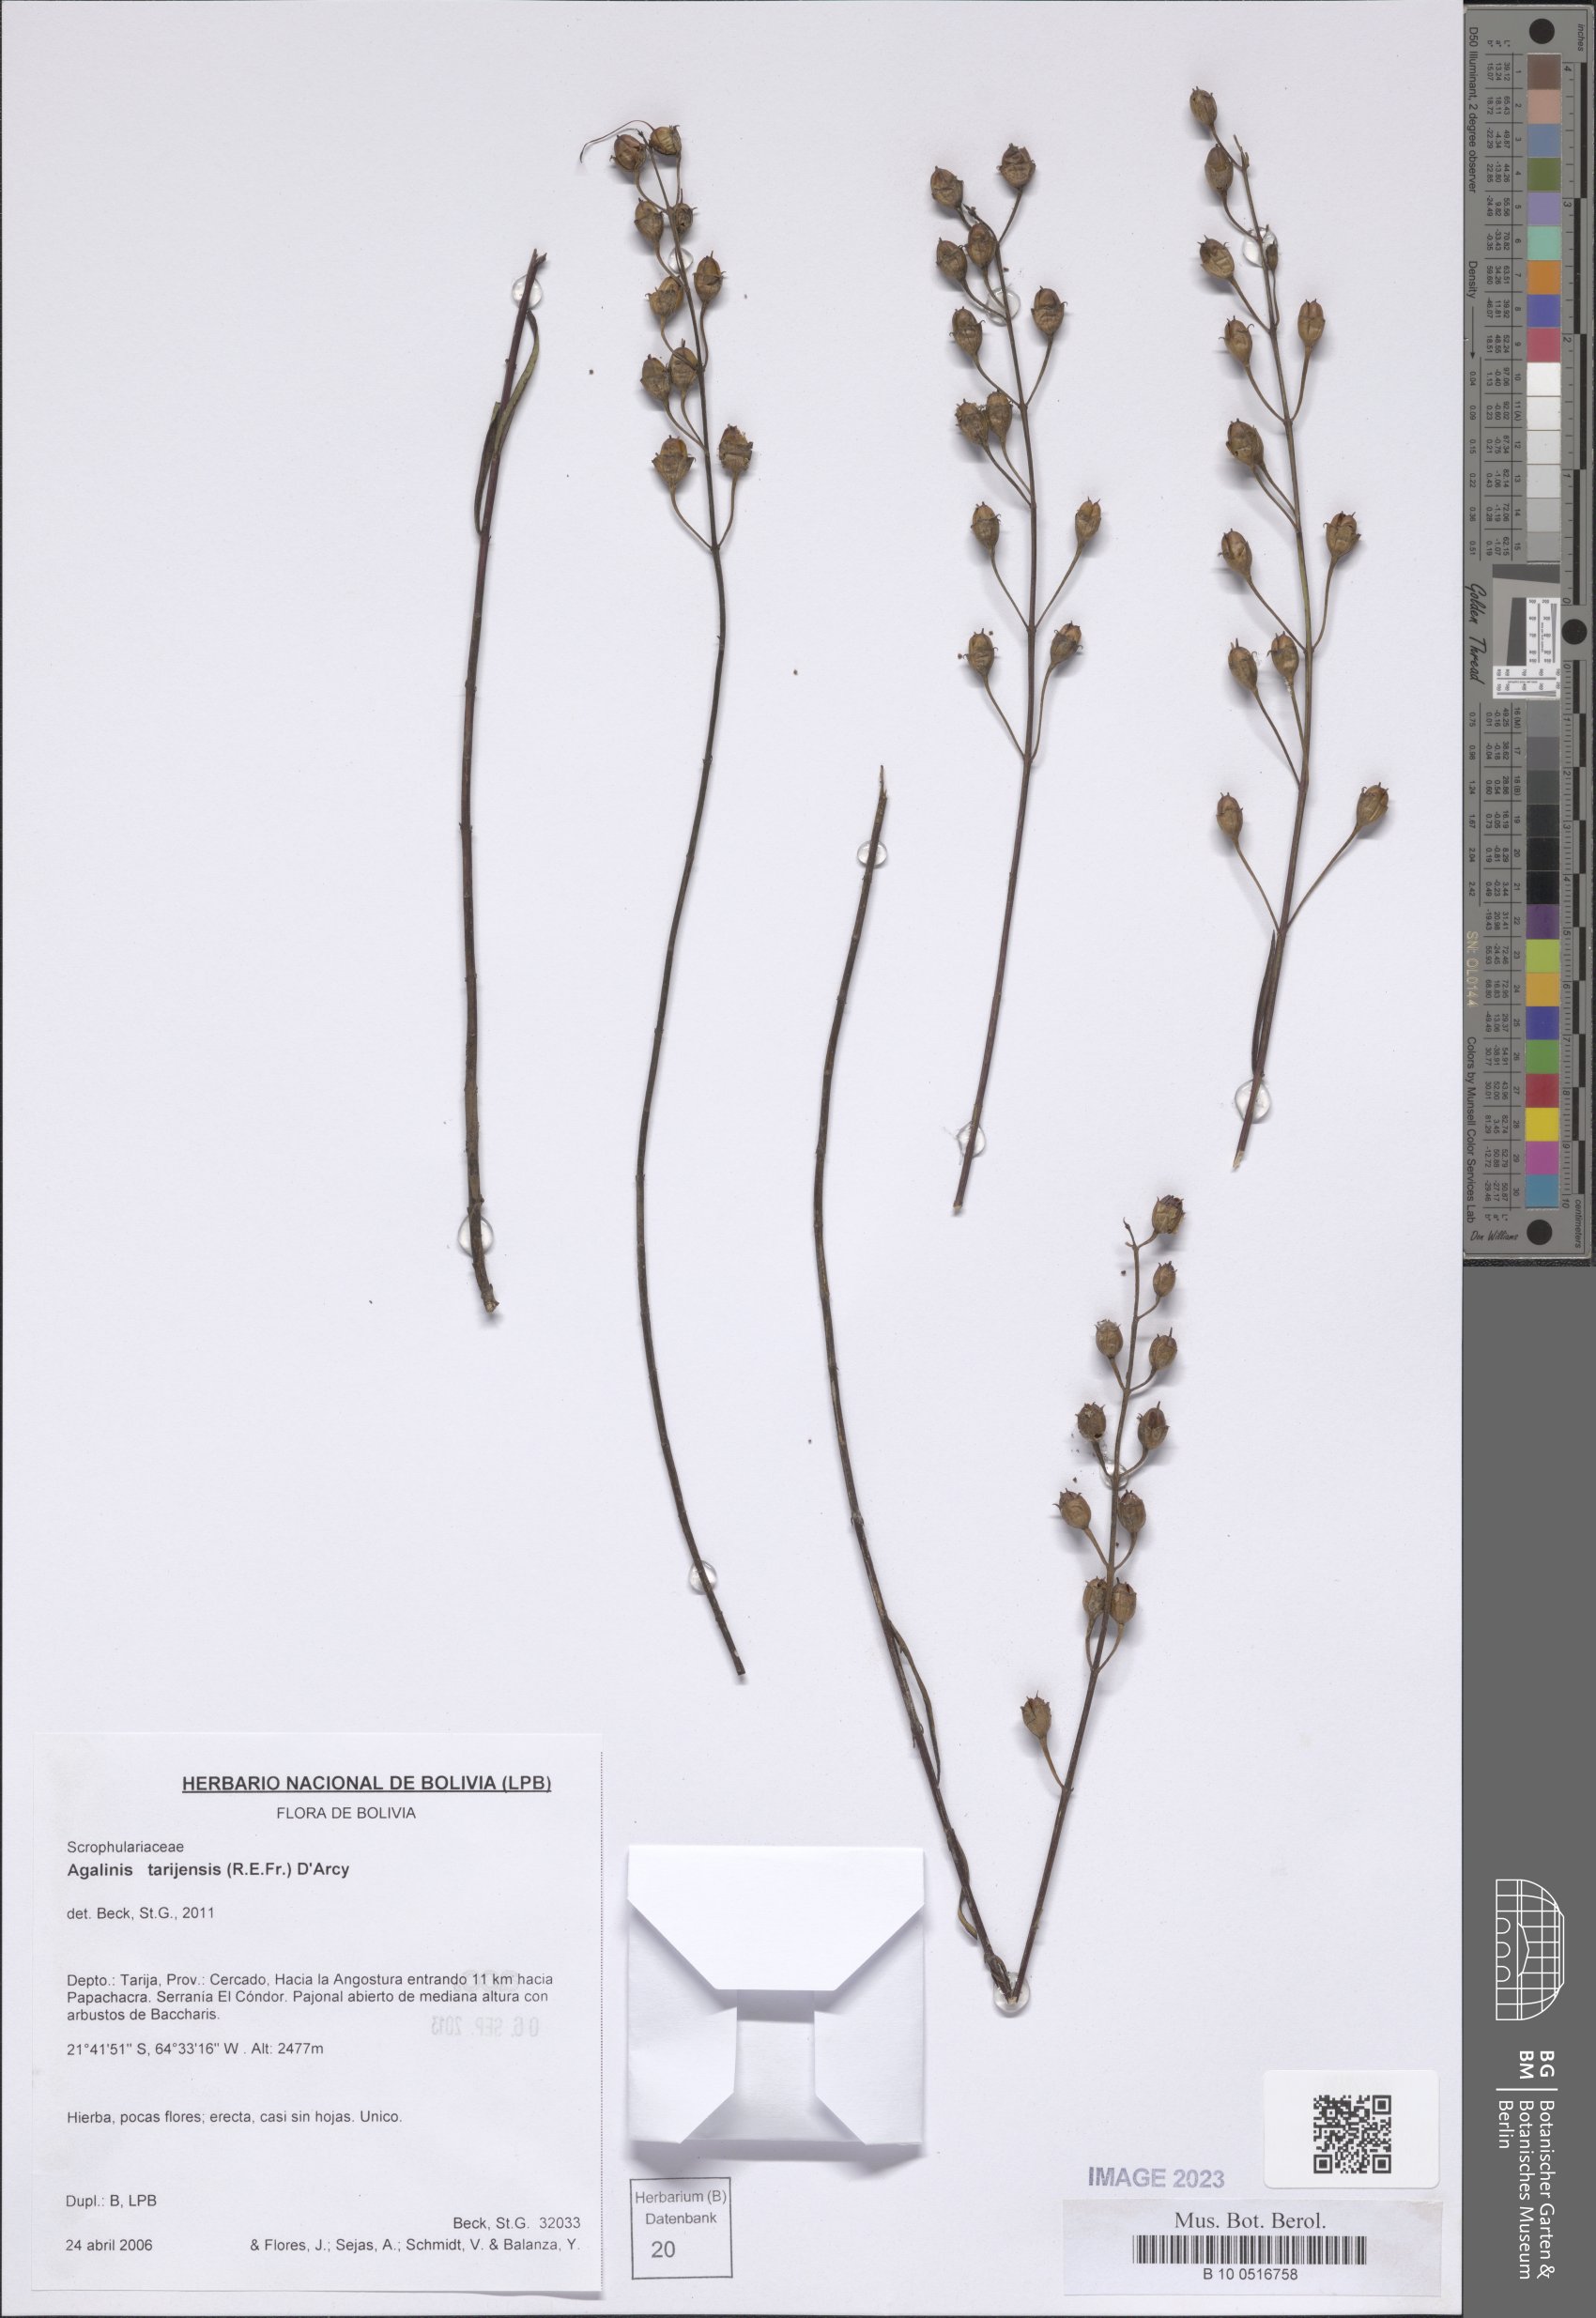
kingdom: Plantae
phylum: Tracheophyta
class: Magnoliopsida
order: Lamiales
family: Orobanchaceae
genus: Agalinis
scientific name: Agalinis tarijensis
